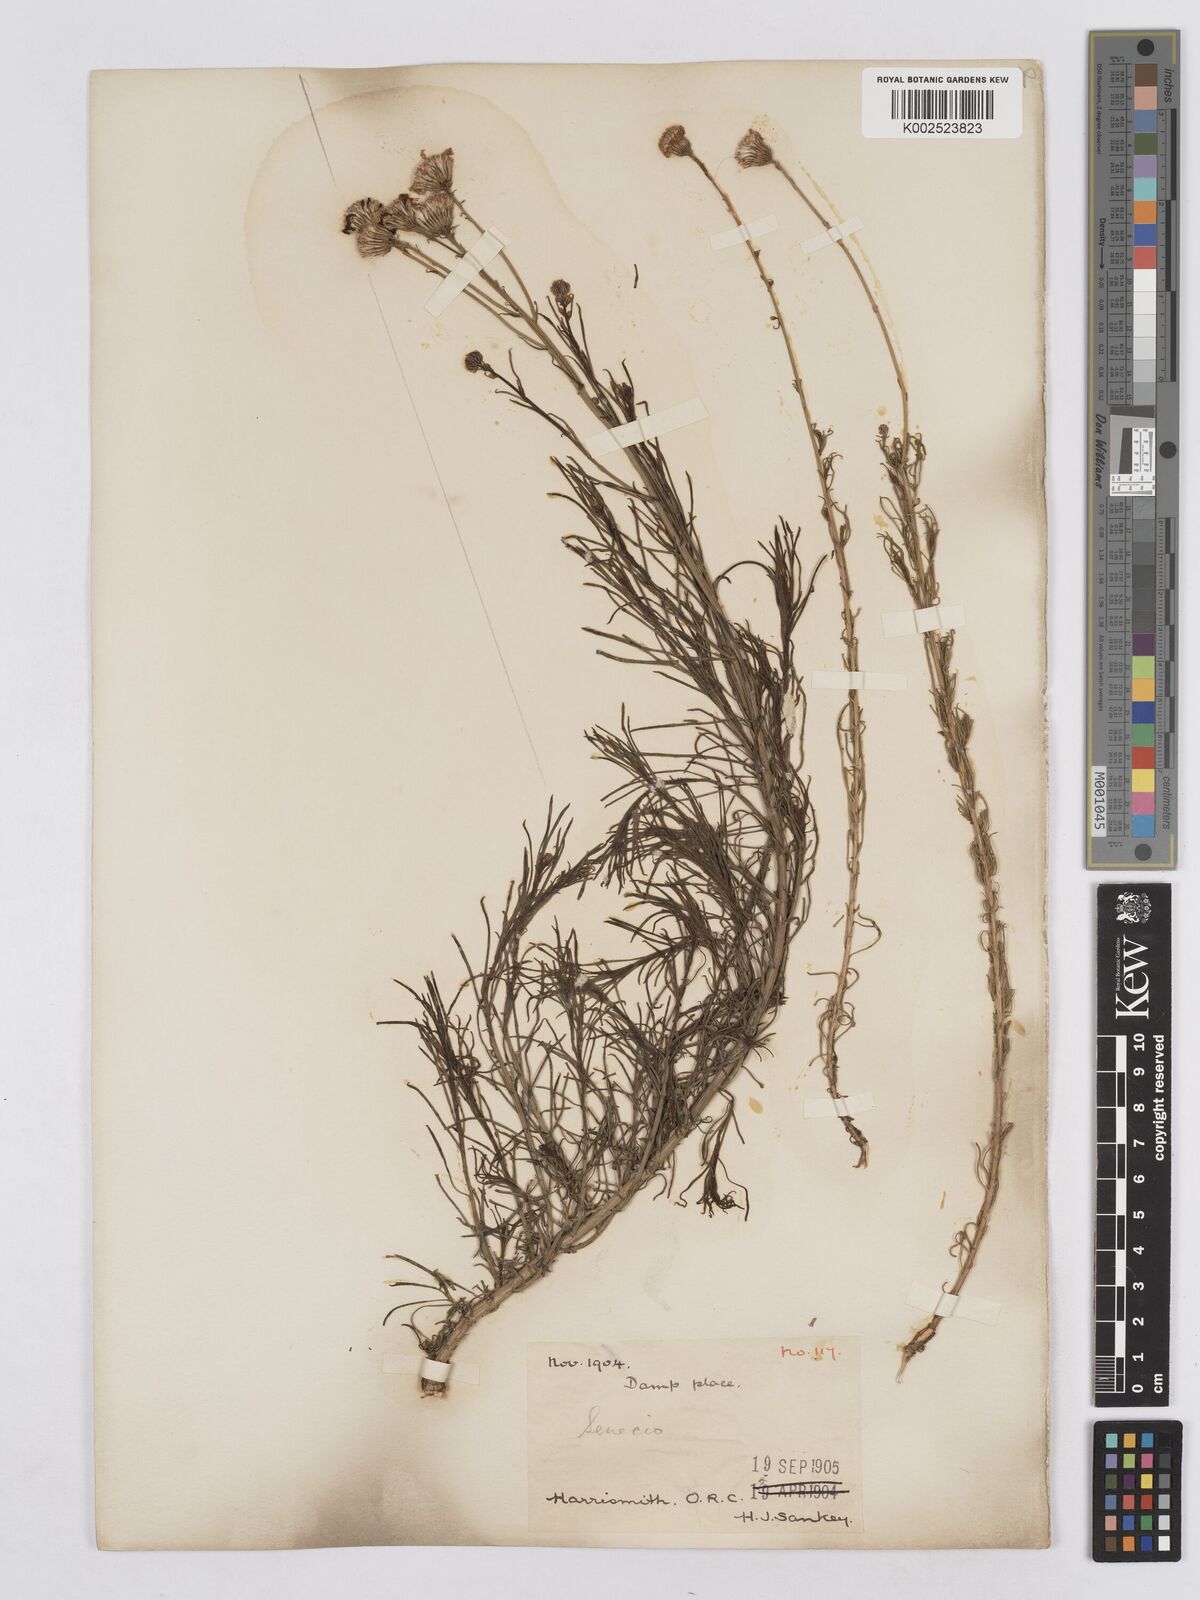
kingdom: Plantae
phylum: Tracheophyta
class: Magnoliopsida
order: Asterales
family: Asteraceae
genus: Senecio
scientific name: Senecio harveyanus
